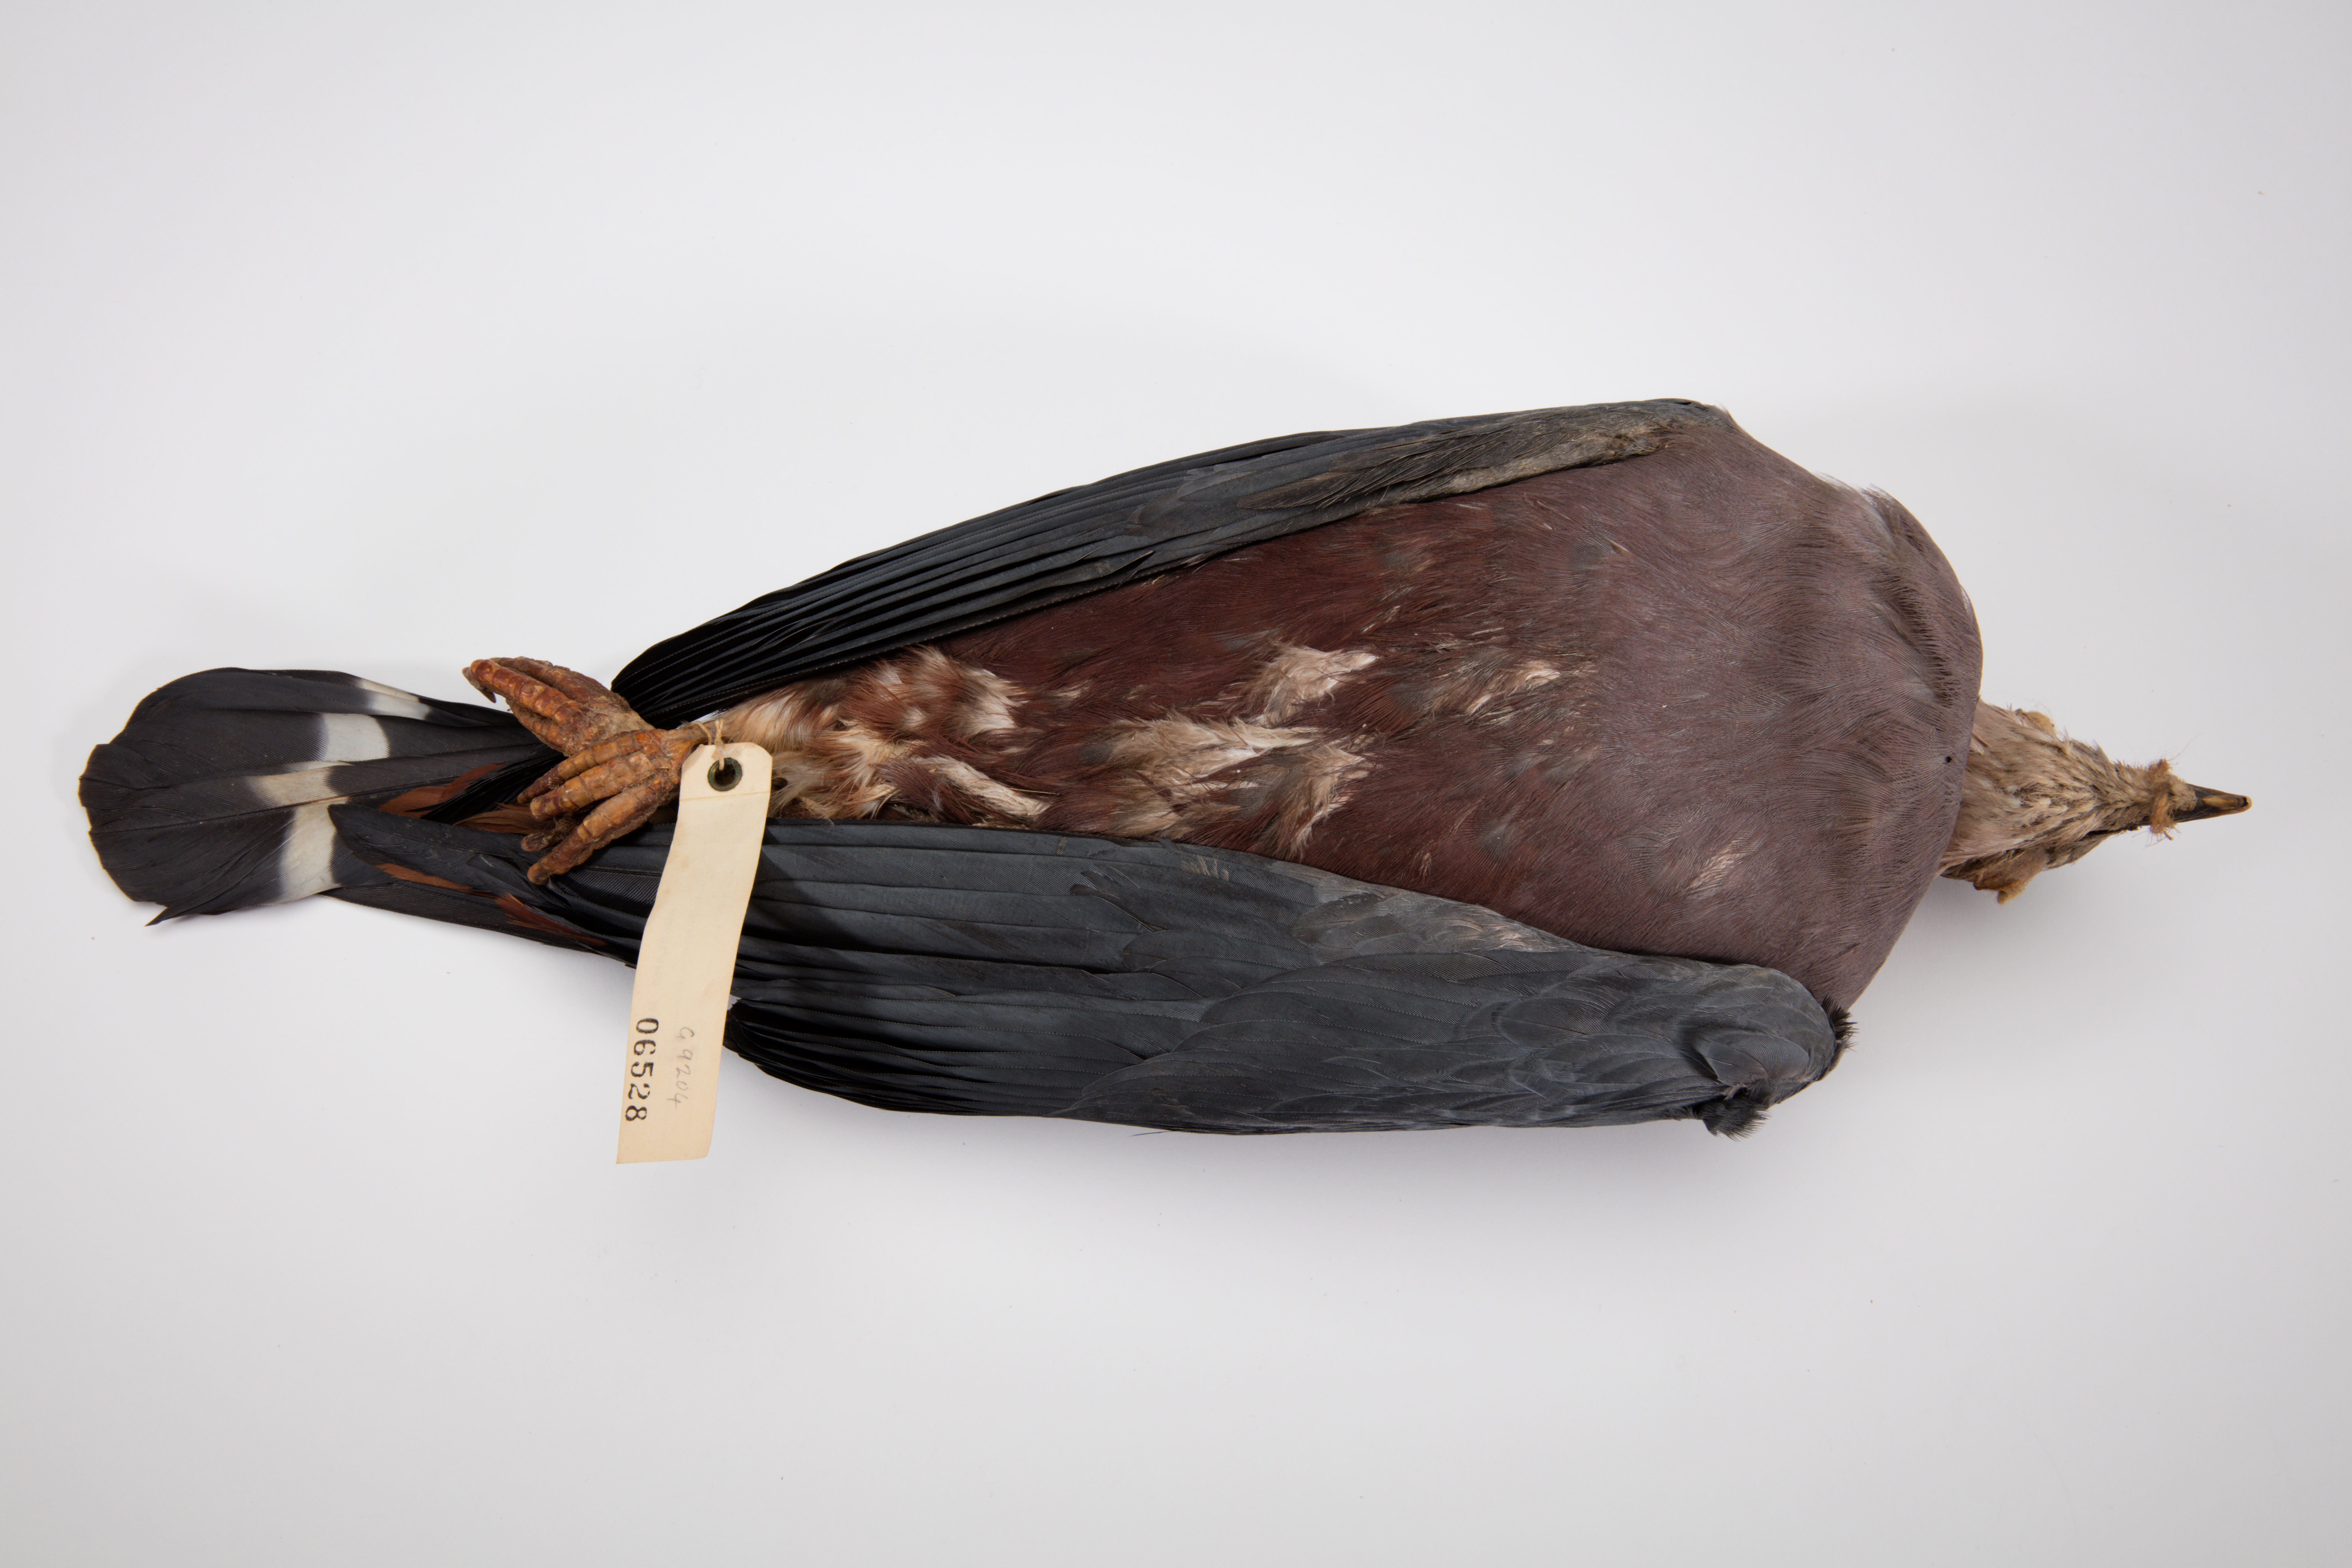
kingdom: Animalia
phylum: Chordata
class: Aves
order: Columbiformes
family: Columbidae
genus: Ducula
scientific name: Ducula pinon
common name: Pinon's imperial pigeon
